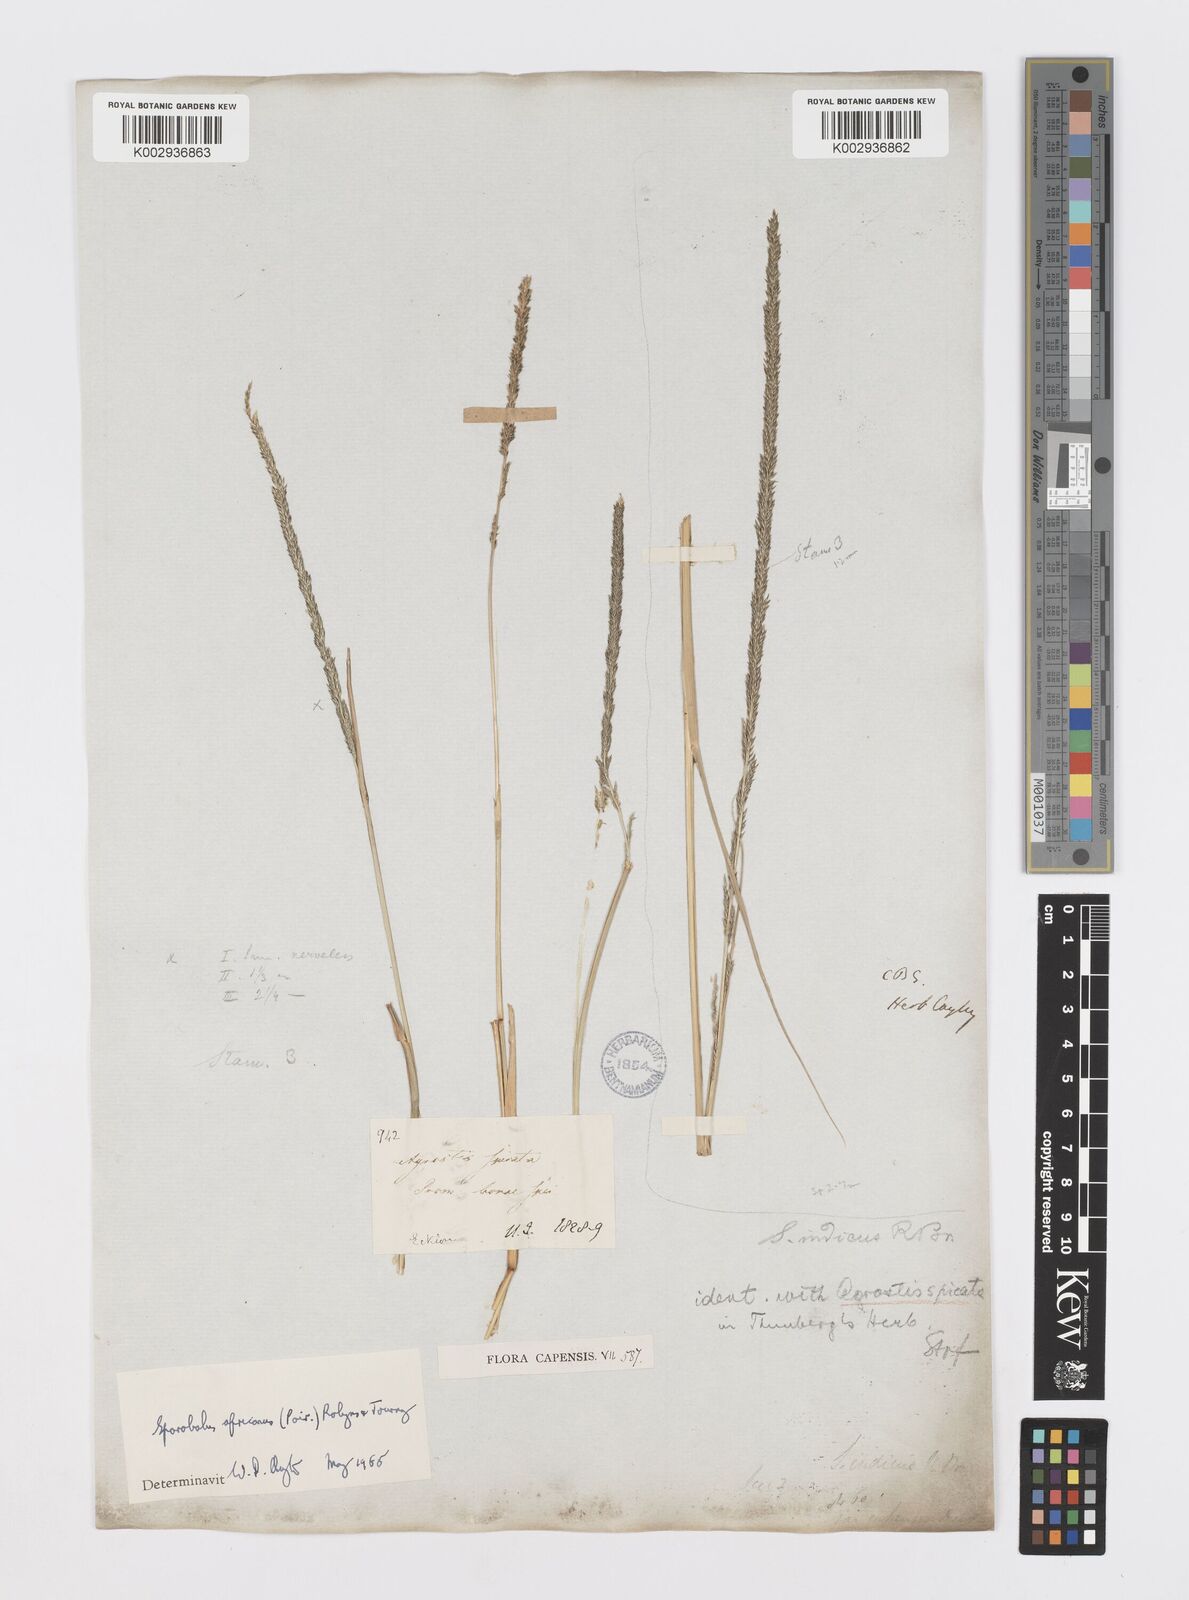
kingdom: Plantae
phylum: Tracheophyta
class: Liliopsida
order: Poales
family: Poaceae
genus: Sporobolus
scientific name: Sporobolus africanus
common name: African dropseed
